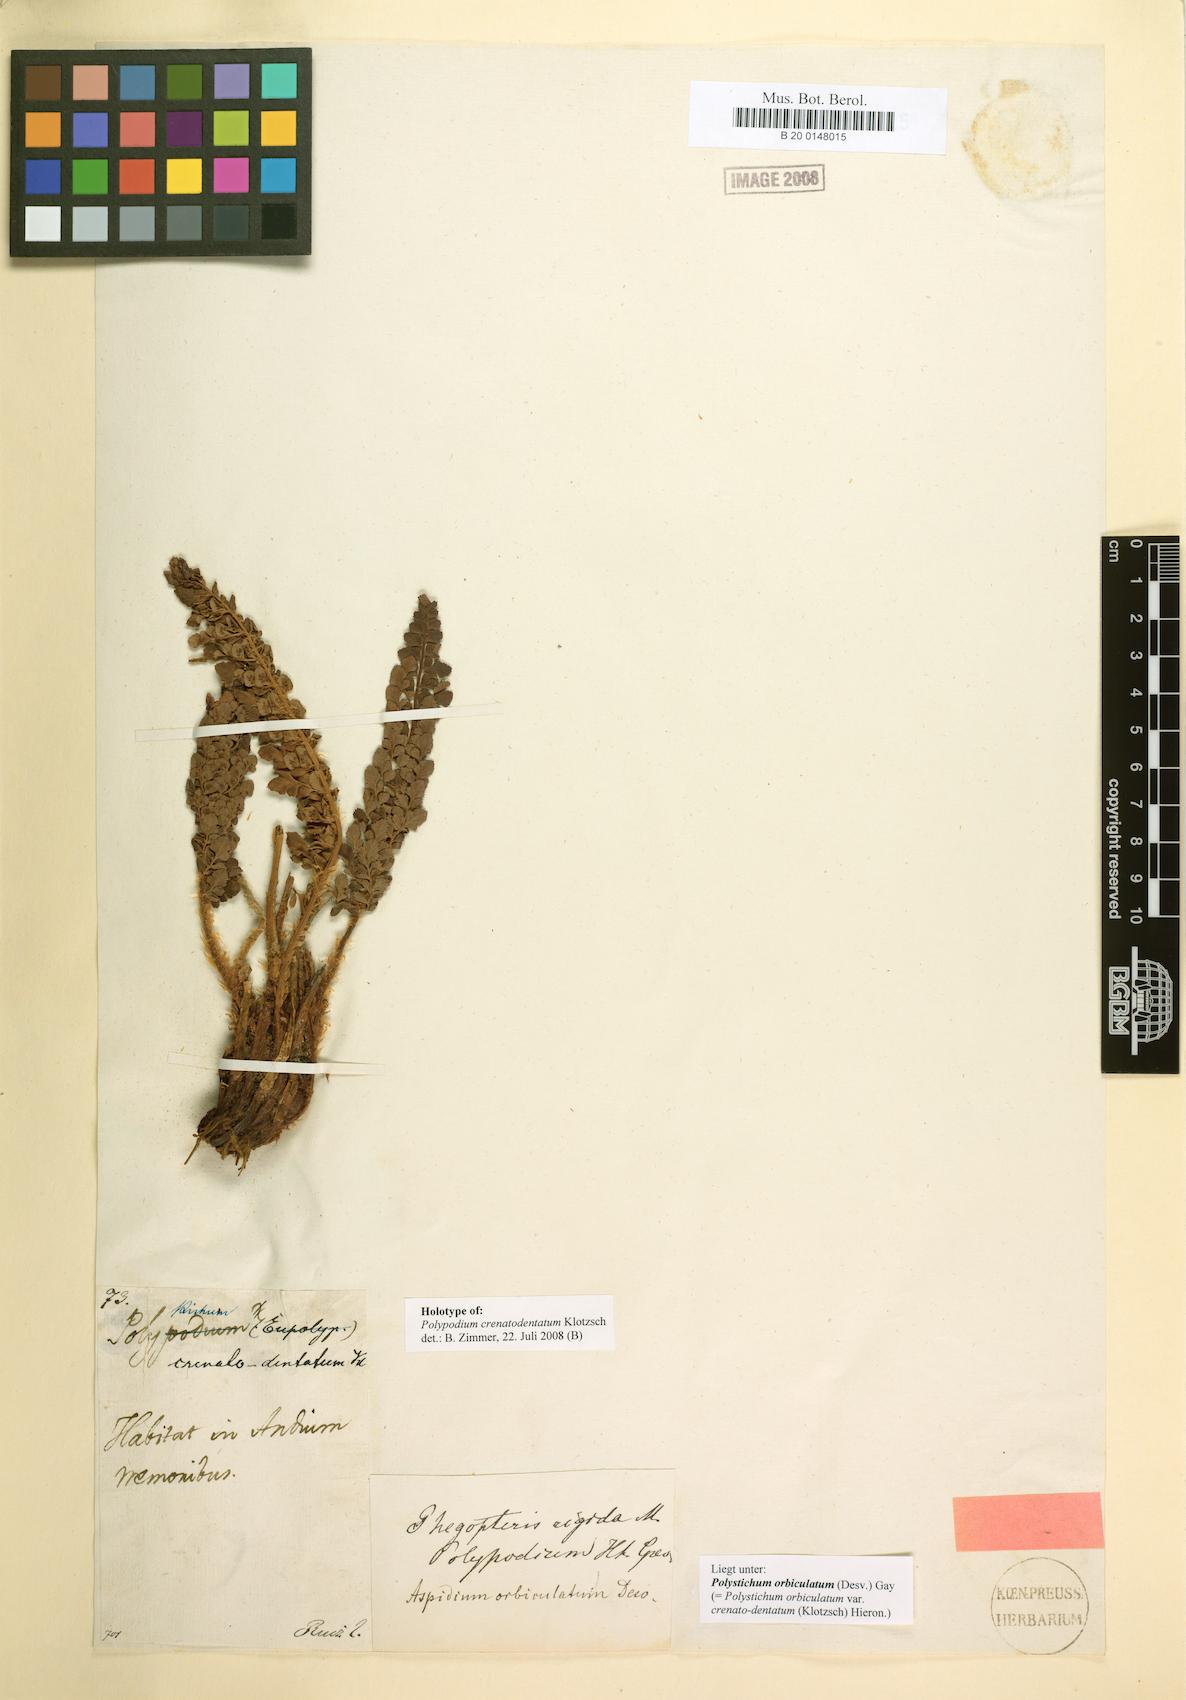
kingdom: Plantae
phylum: Tracheophyta
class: Polypodiopsida
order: Polypodiales
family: Dryopteridaceae
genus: Polystichum
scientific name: Polystichum orbiculatum
